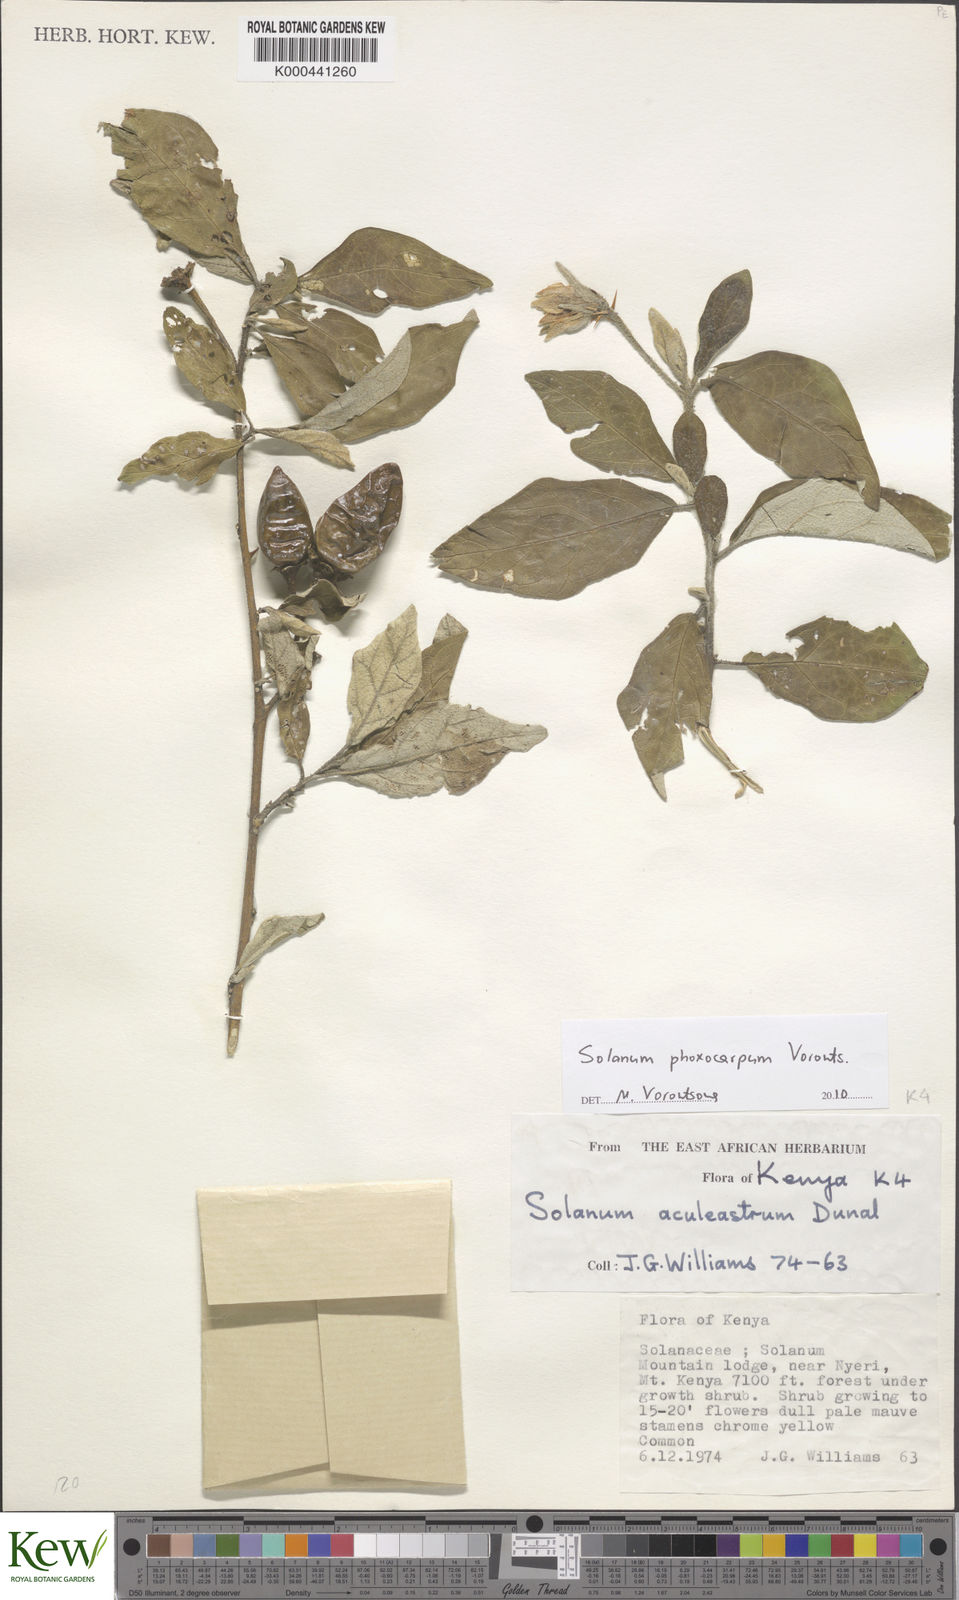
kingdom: Plantae
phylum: Tracheophyta
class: Magnoliopsida
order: Solanales
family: Solanaceae
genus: Solanum
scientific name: Solanum phoxocarpum
